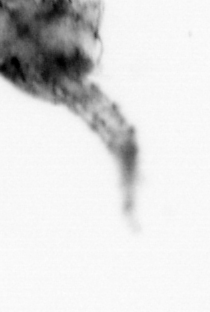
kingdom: Animalia
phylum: Arthropoda
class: Malacostraca
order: Decapoda
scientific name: Decapoda
